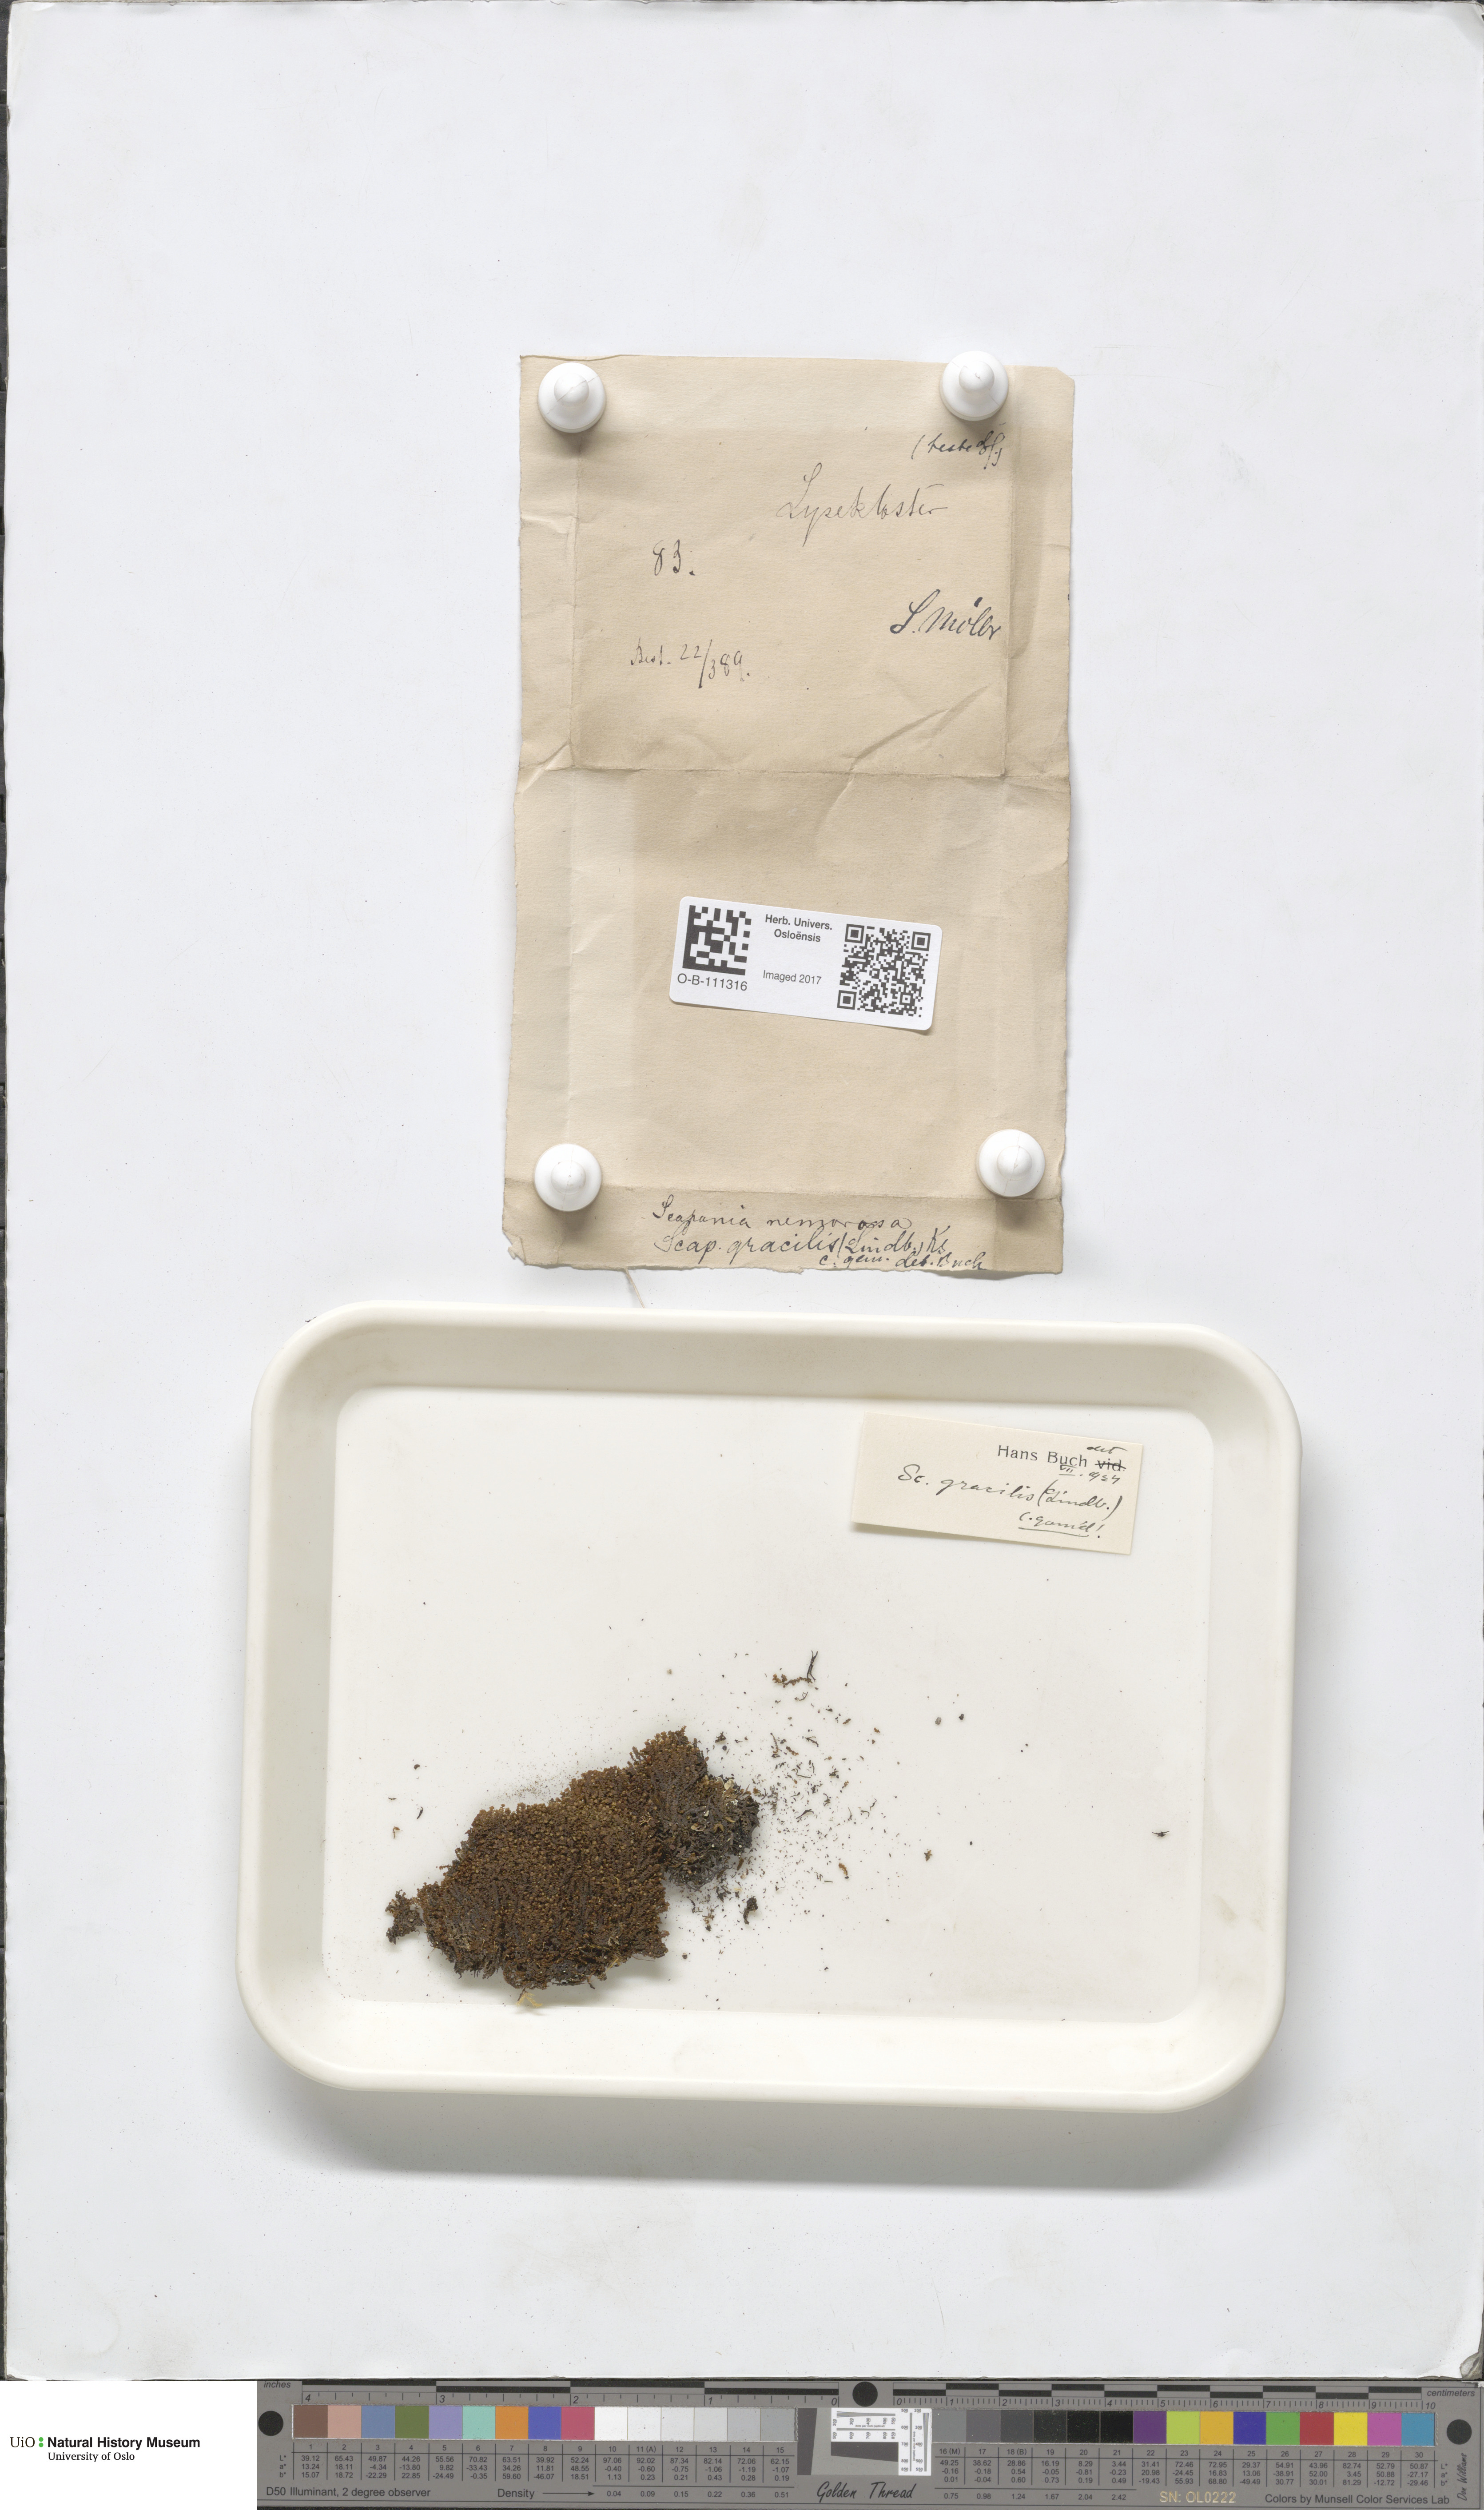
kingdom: Plantae
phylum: Marchantiophyta
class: Jungermanniopsida
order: Jungermanniales
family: Scapaniaceae
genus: Scapania
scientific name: Scapania gracilis
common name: Western earwort
